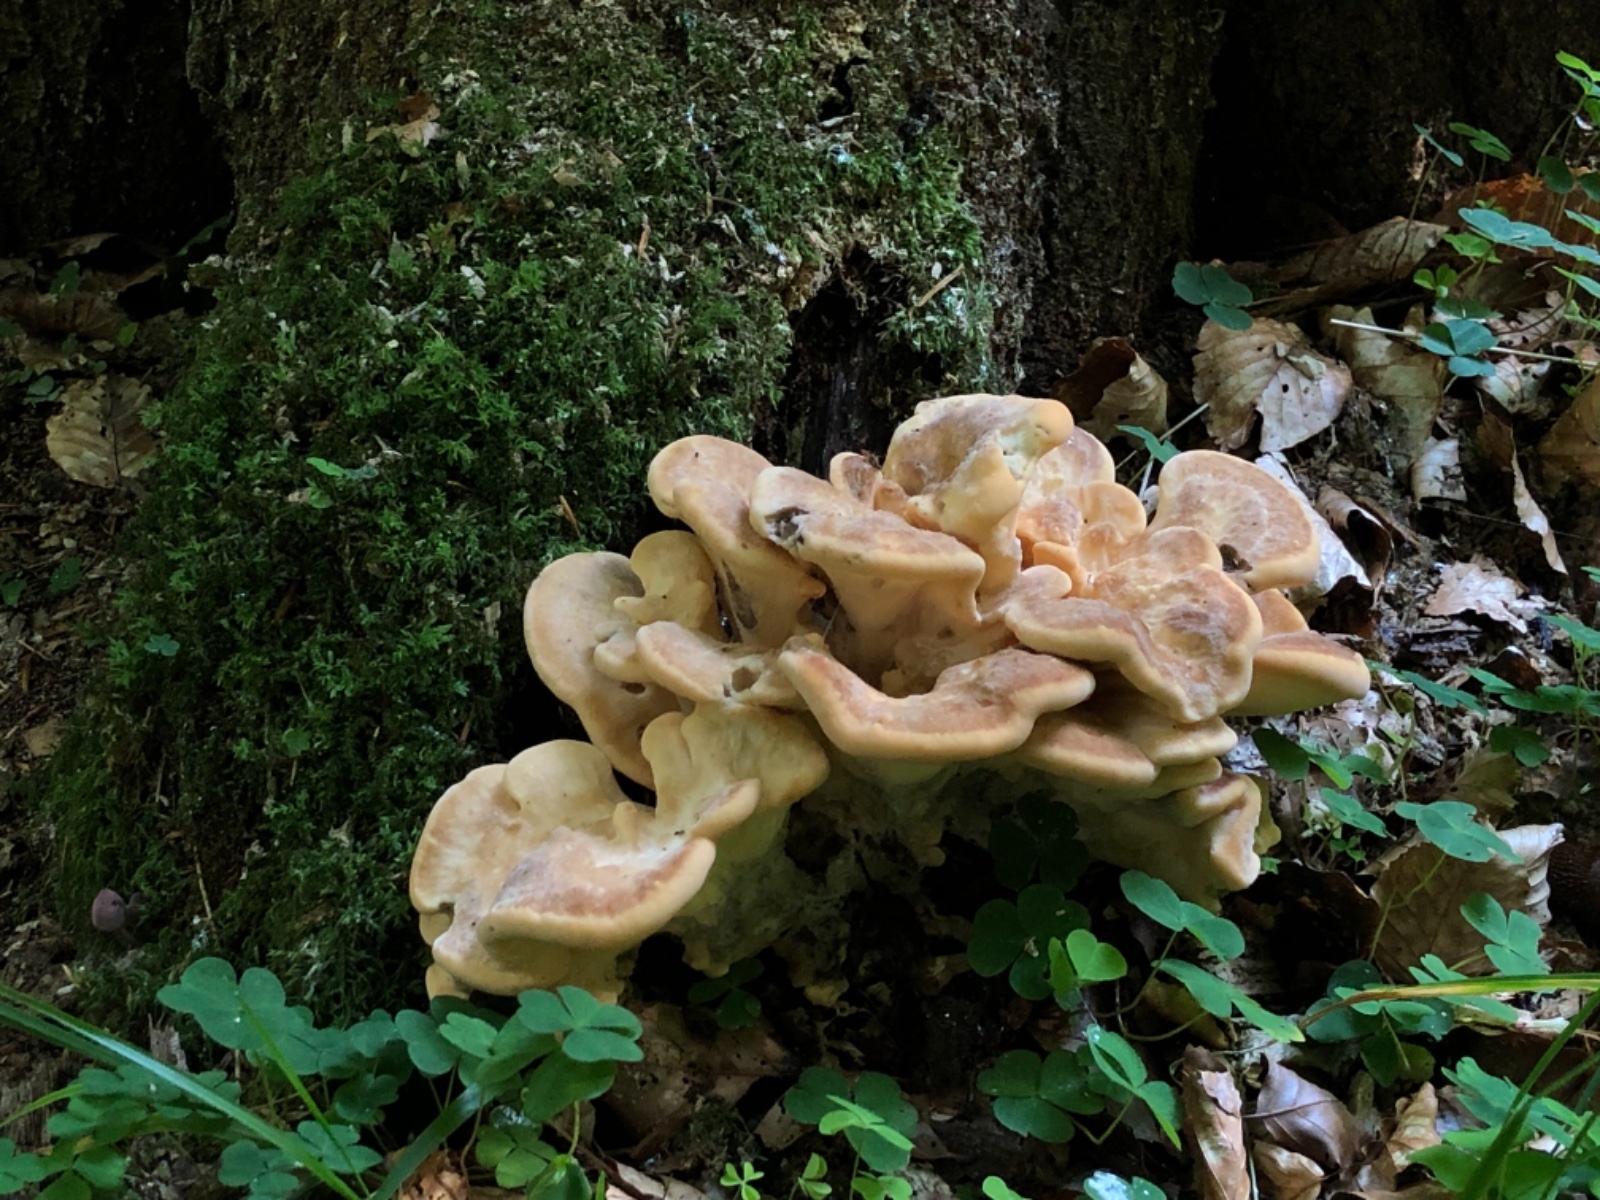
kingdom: Fungi
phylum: Basidiomycota
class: Agaricomycetes
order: Polyporales
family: Meripilaceae
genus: Meripilus
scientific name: Meripilus giganteus
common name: kæmpeporesvamp
